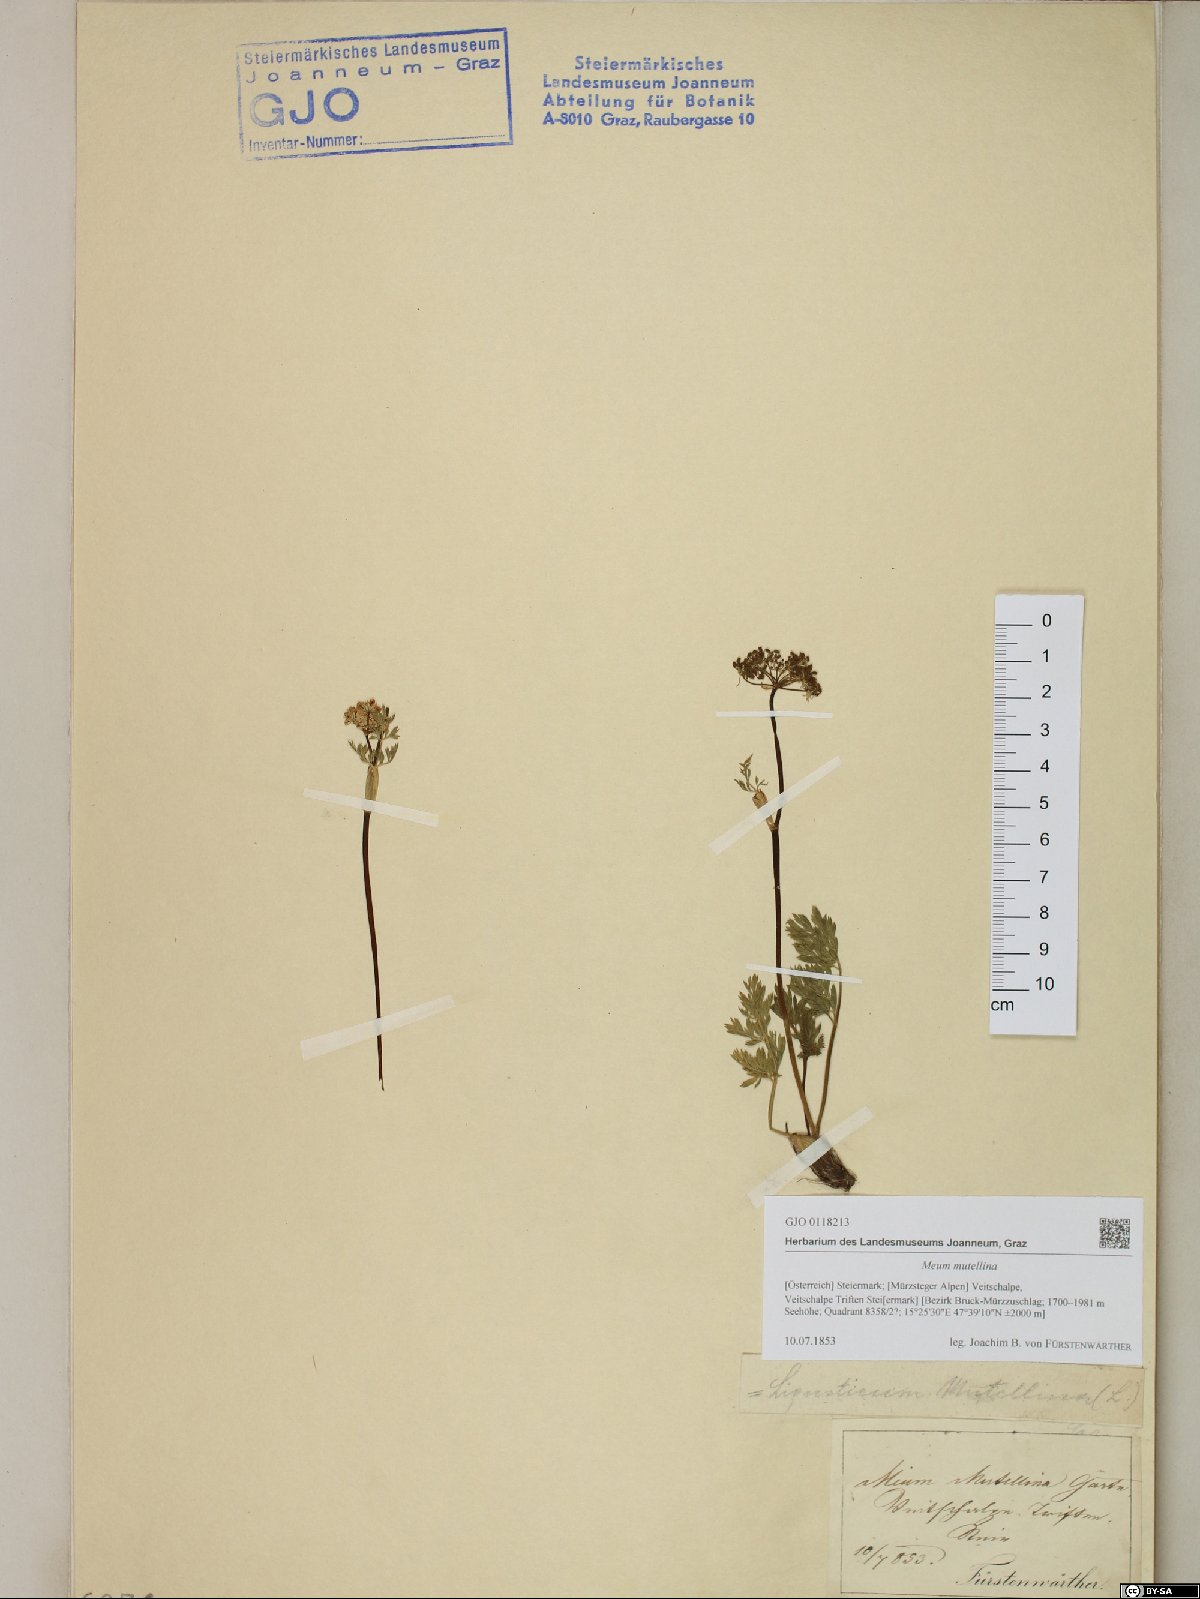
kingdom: Plantae
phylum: Tracheophyta
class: Magnoliopsida
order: Apiales
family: Apiaceae
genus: Mutellina
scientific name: Mutellina adonidifolia
